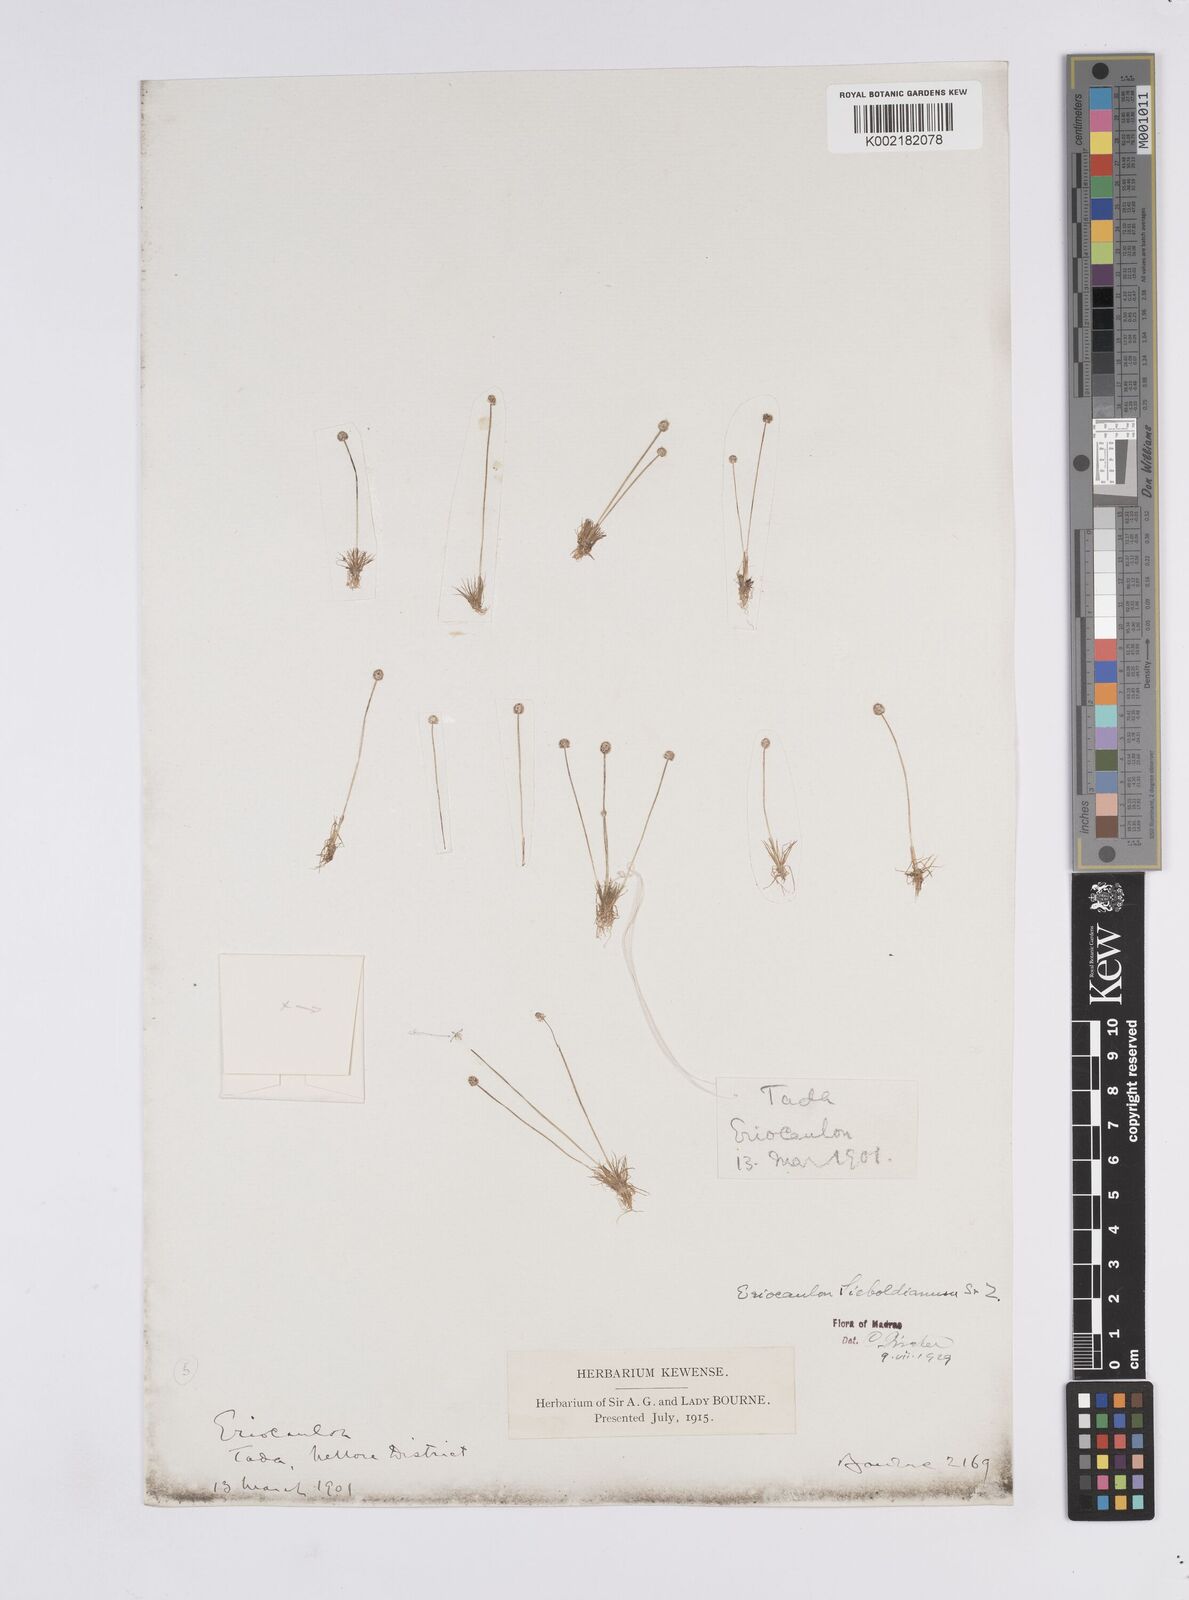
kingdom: Plantae
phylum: Tracheophyta
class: Liliopsida
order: Poales
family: Eriocaulaceae
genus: Eriocaulon
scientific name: Eriocaulon cinereum
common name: Ashy pipewort
